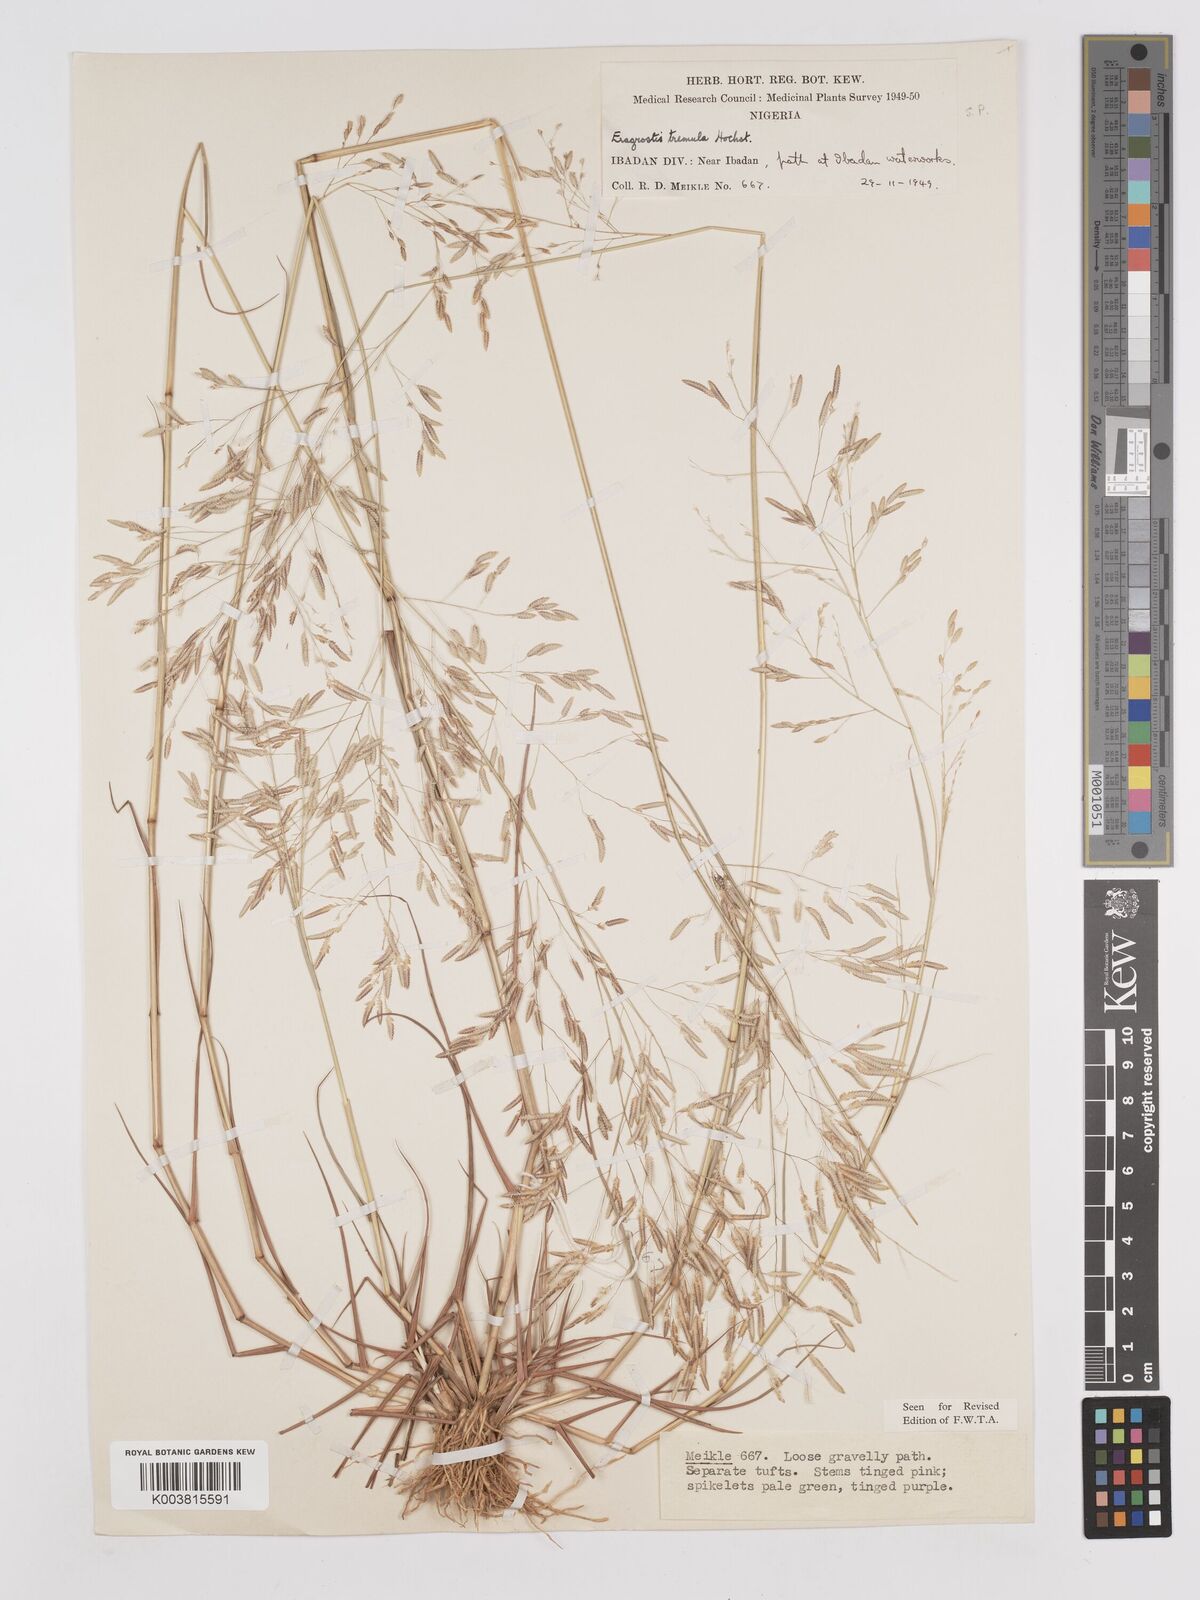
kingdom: Plantae
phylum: Tracheophyta
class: Liliopsida
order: Poales
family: Poaceae
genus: Eragrostis
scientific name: Eragrostis tremula
